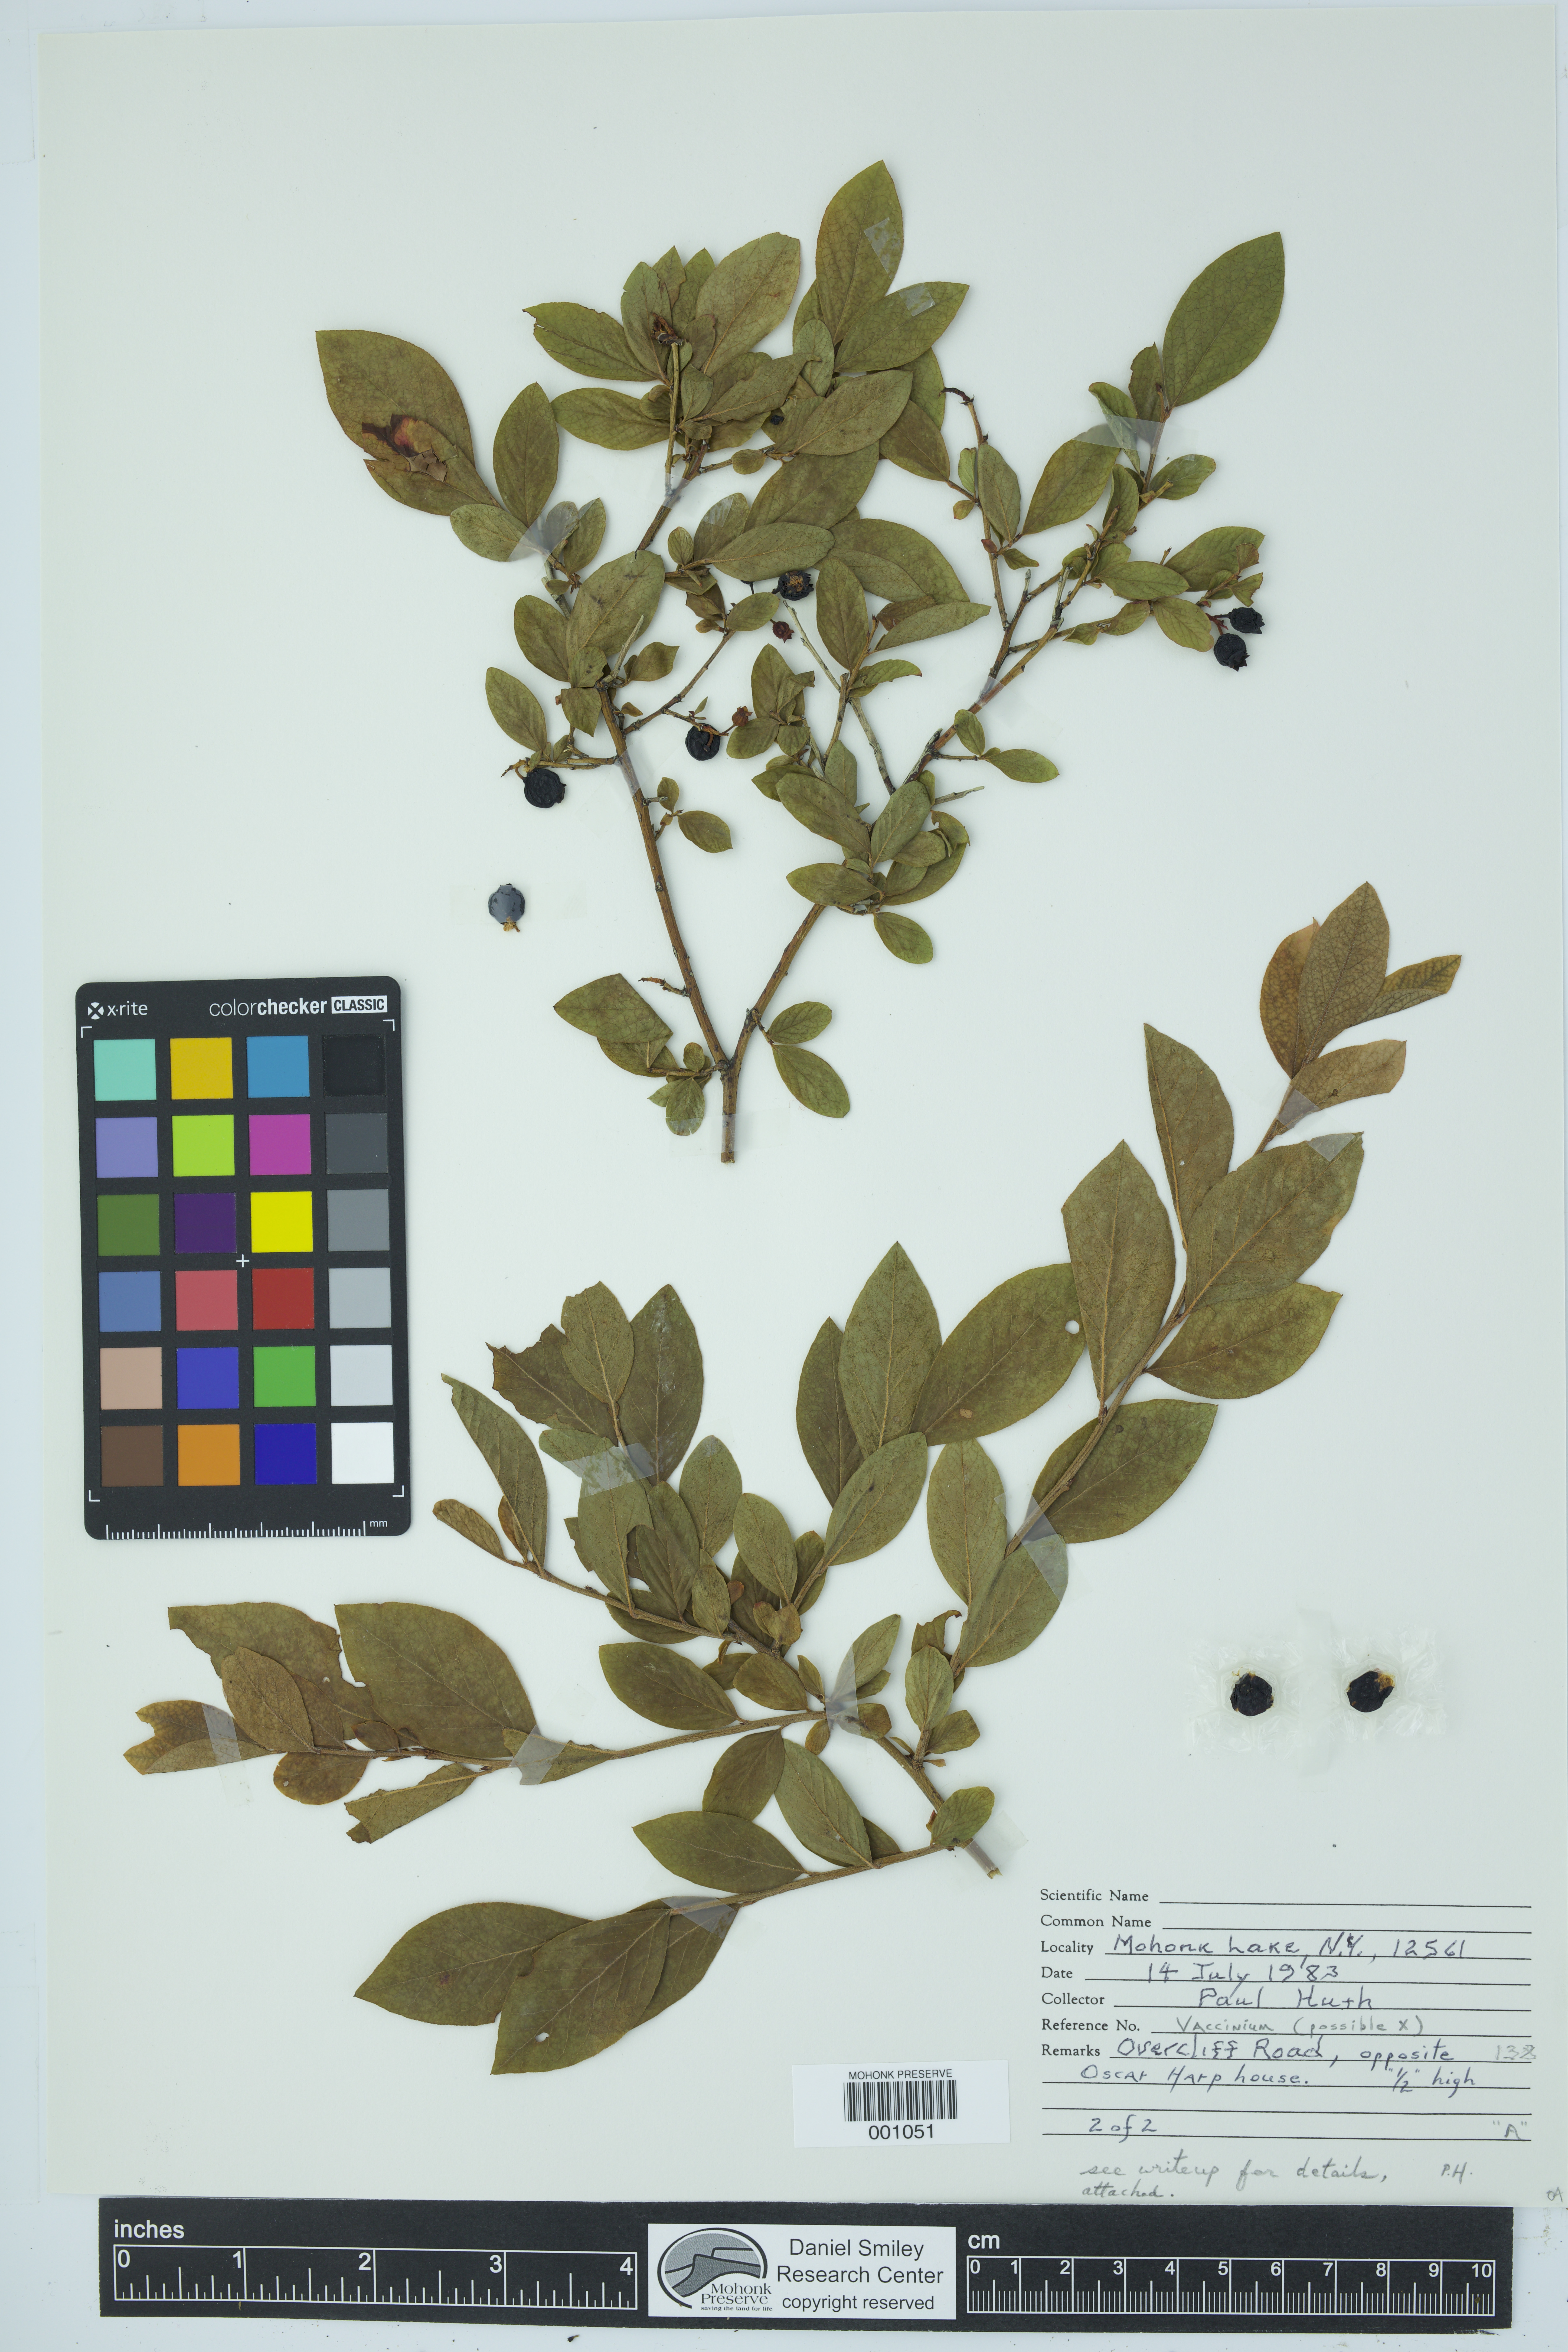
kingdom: Plantae
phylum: Tracheophyta
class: Magnoliopsida
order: Ericales
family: Ericaceae
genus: Vaccinium
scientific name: Vaccinium
